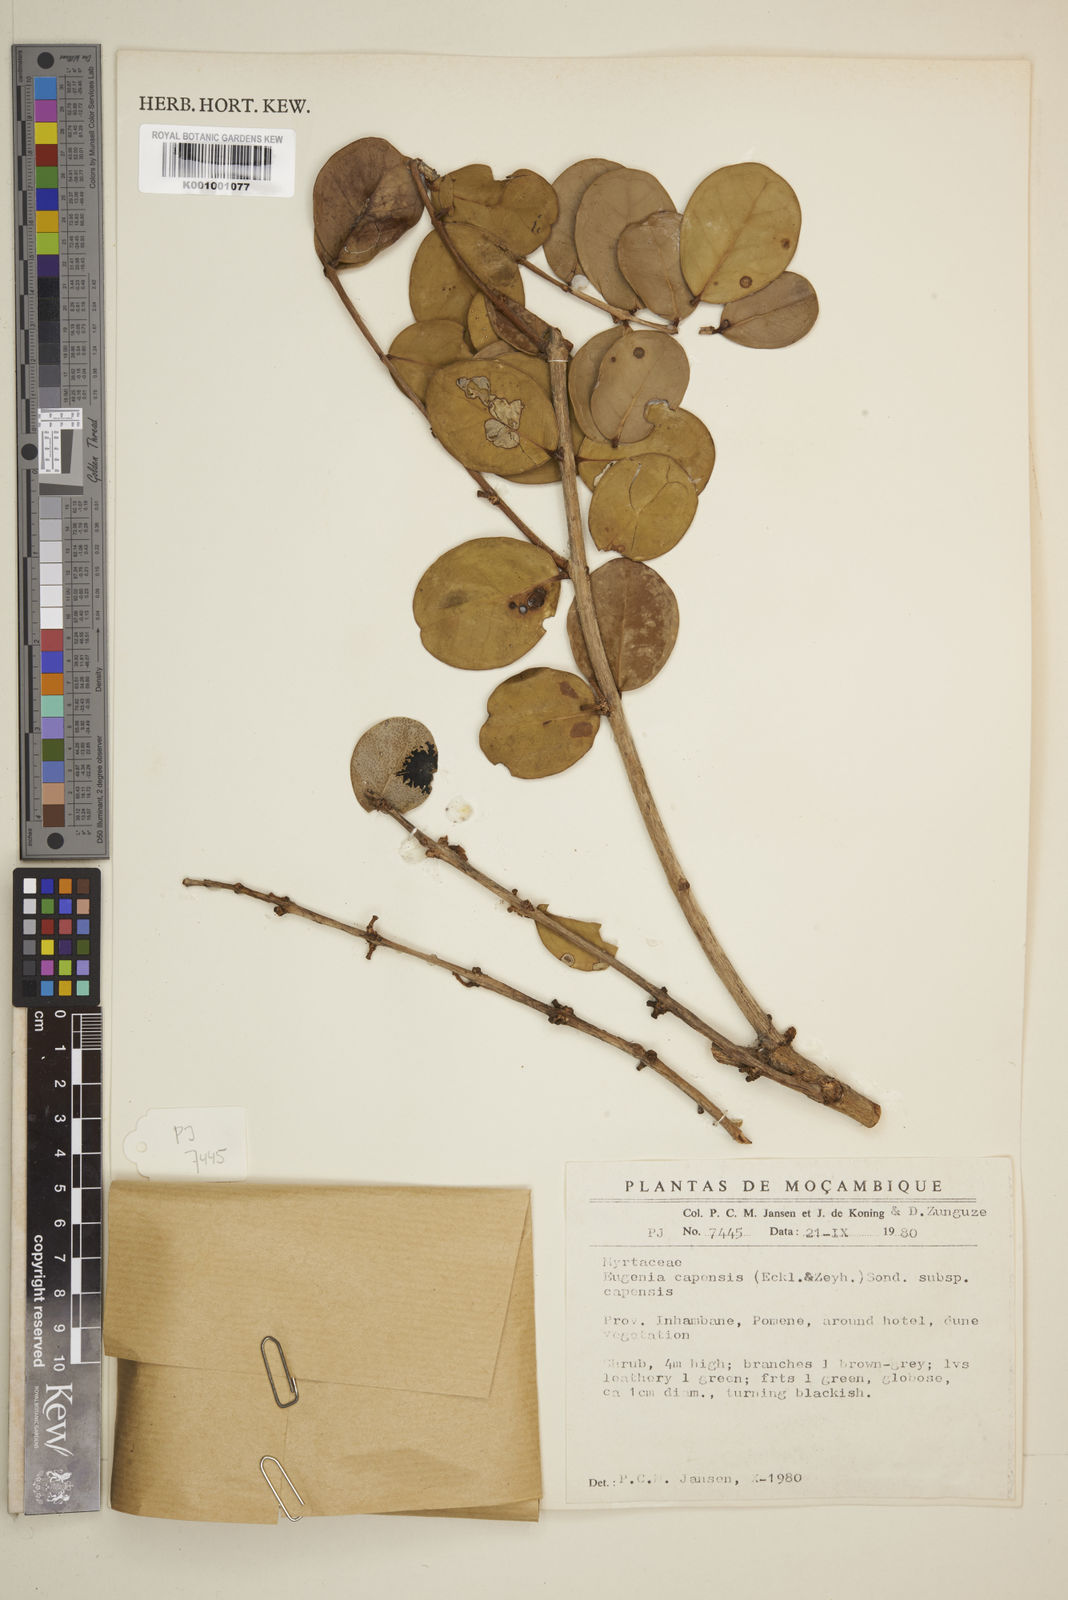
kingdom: Plantae
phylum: Tracheophyta
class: Magnoliopsida
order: Myrtales
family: Myrtaceae
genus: Eugenia
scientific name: Eugenia capensis
